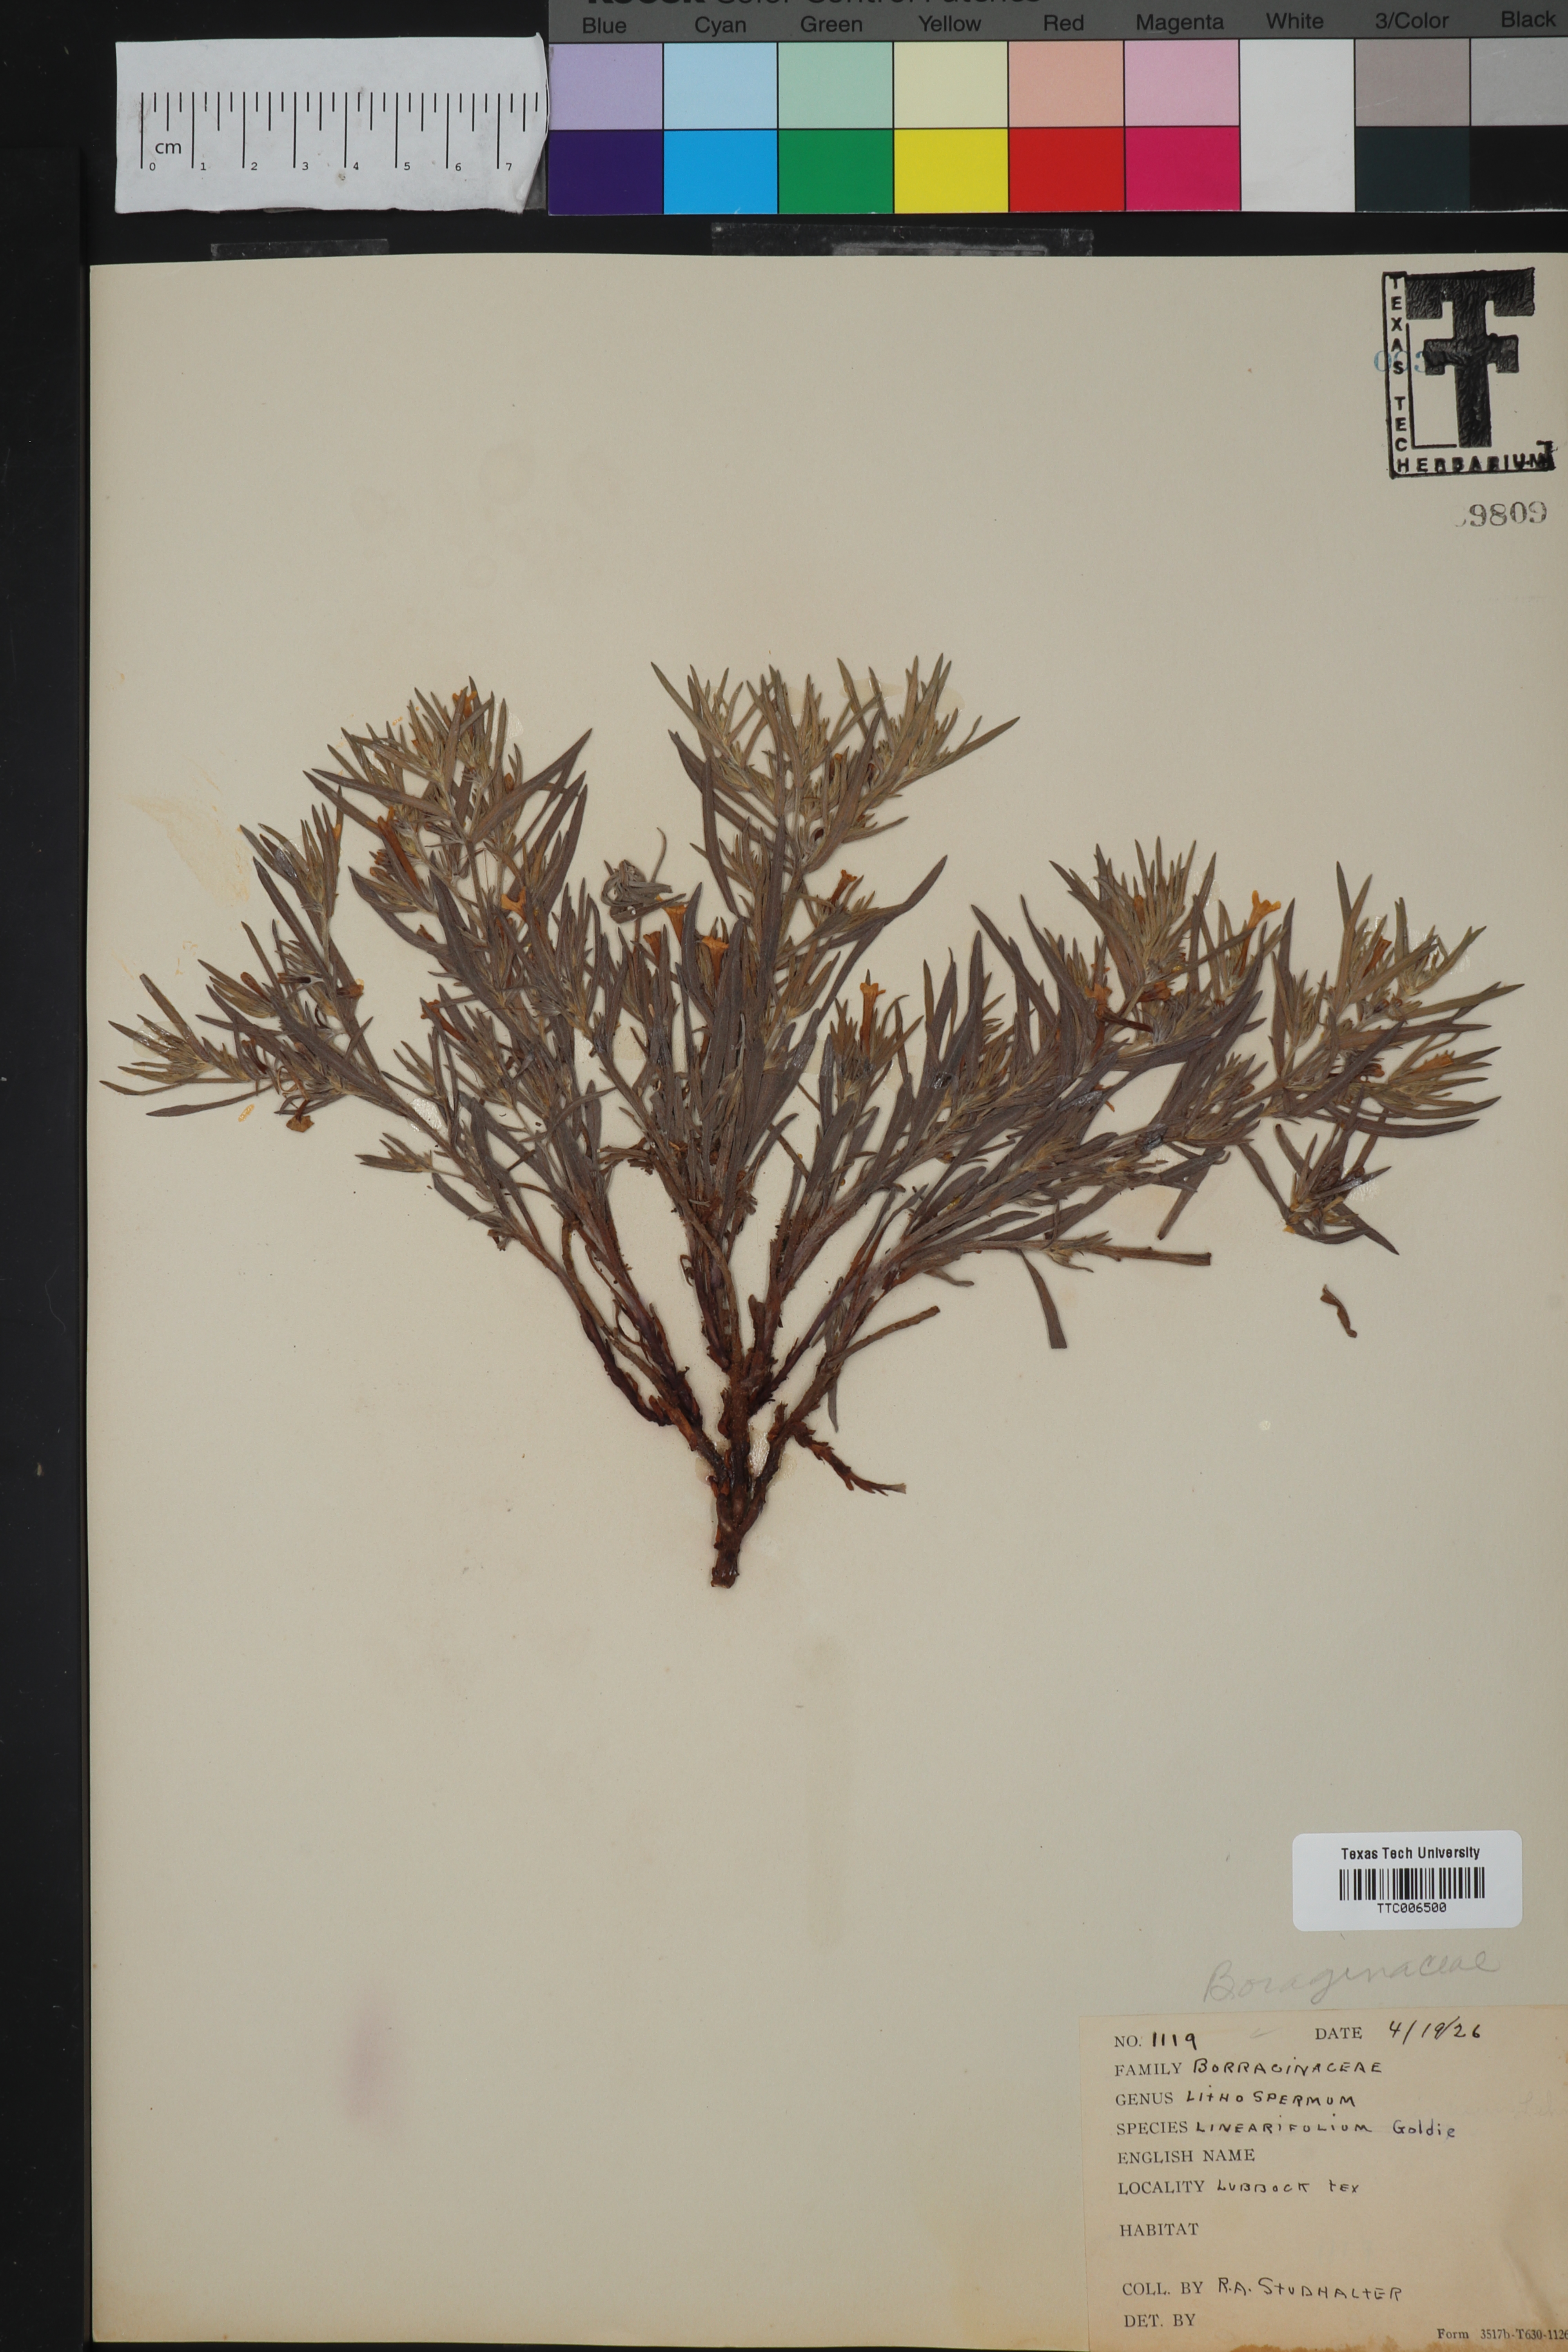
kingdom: Plantae
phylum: Tracheophyta
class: Magnoliopsida
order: Boraginales
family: Boraginaceae
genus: Lithospermum
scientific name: Lithospermum incisum
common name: Fringed gromwell
